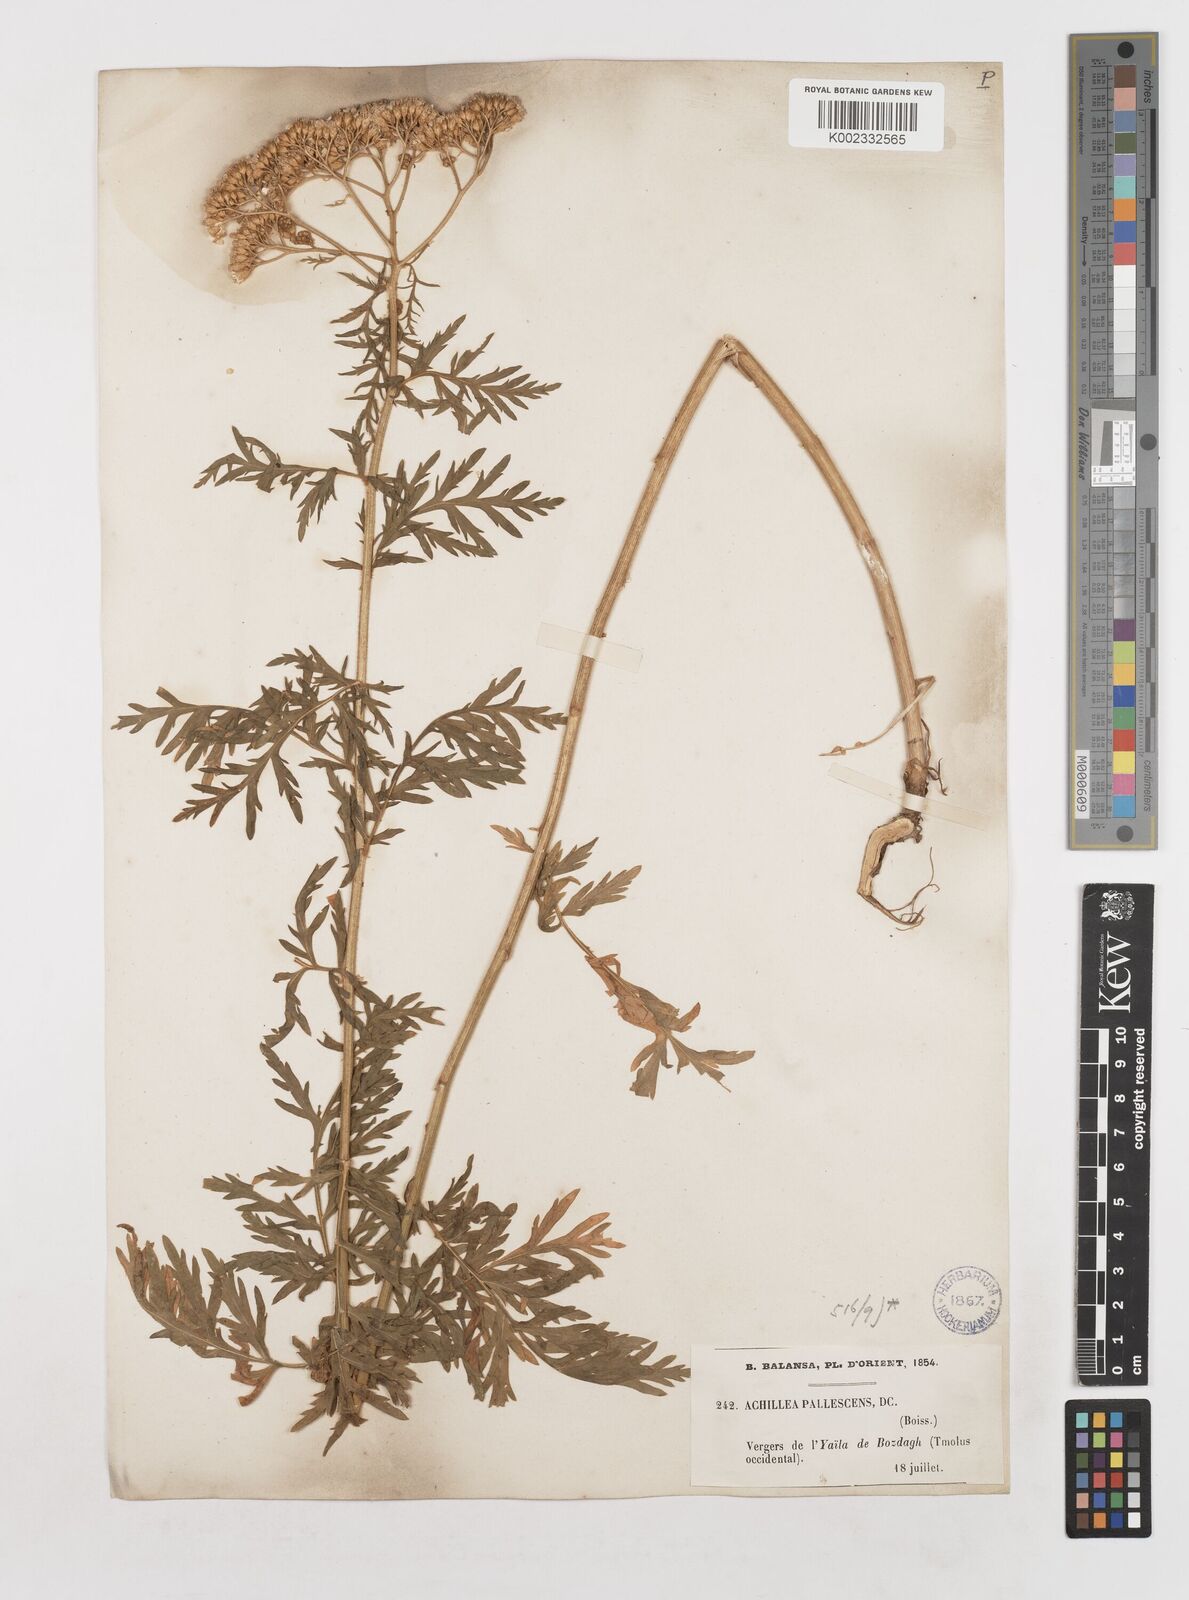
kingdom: Plantae
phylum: Tracheophyta
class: Magnoliopsida
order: Asterales
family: Asteraceae
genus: Achillea
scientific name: Achillea grandifolia
